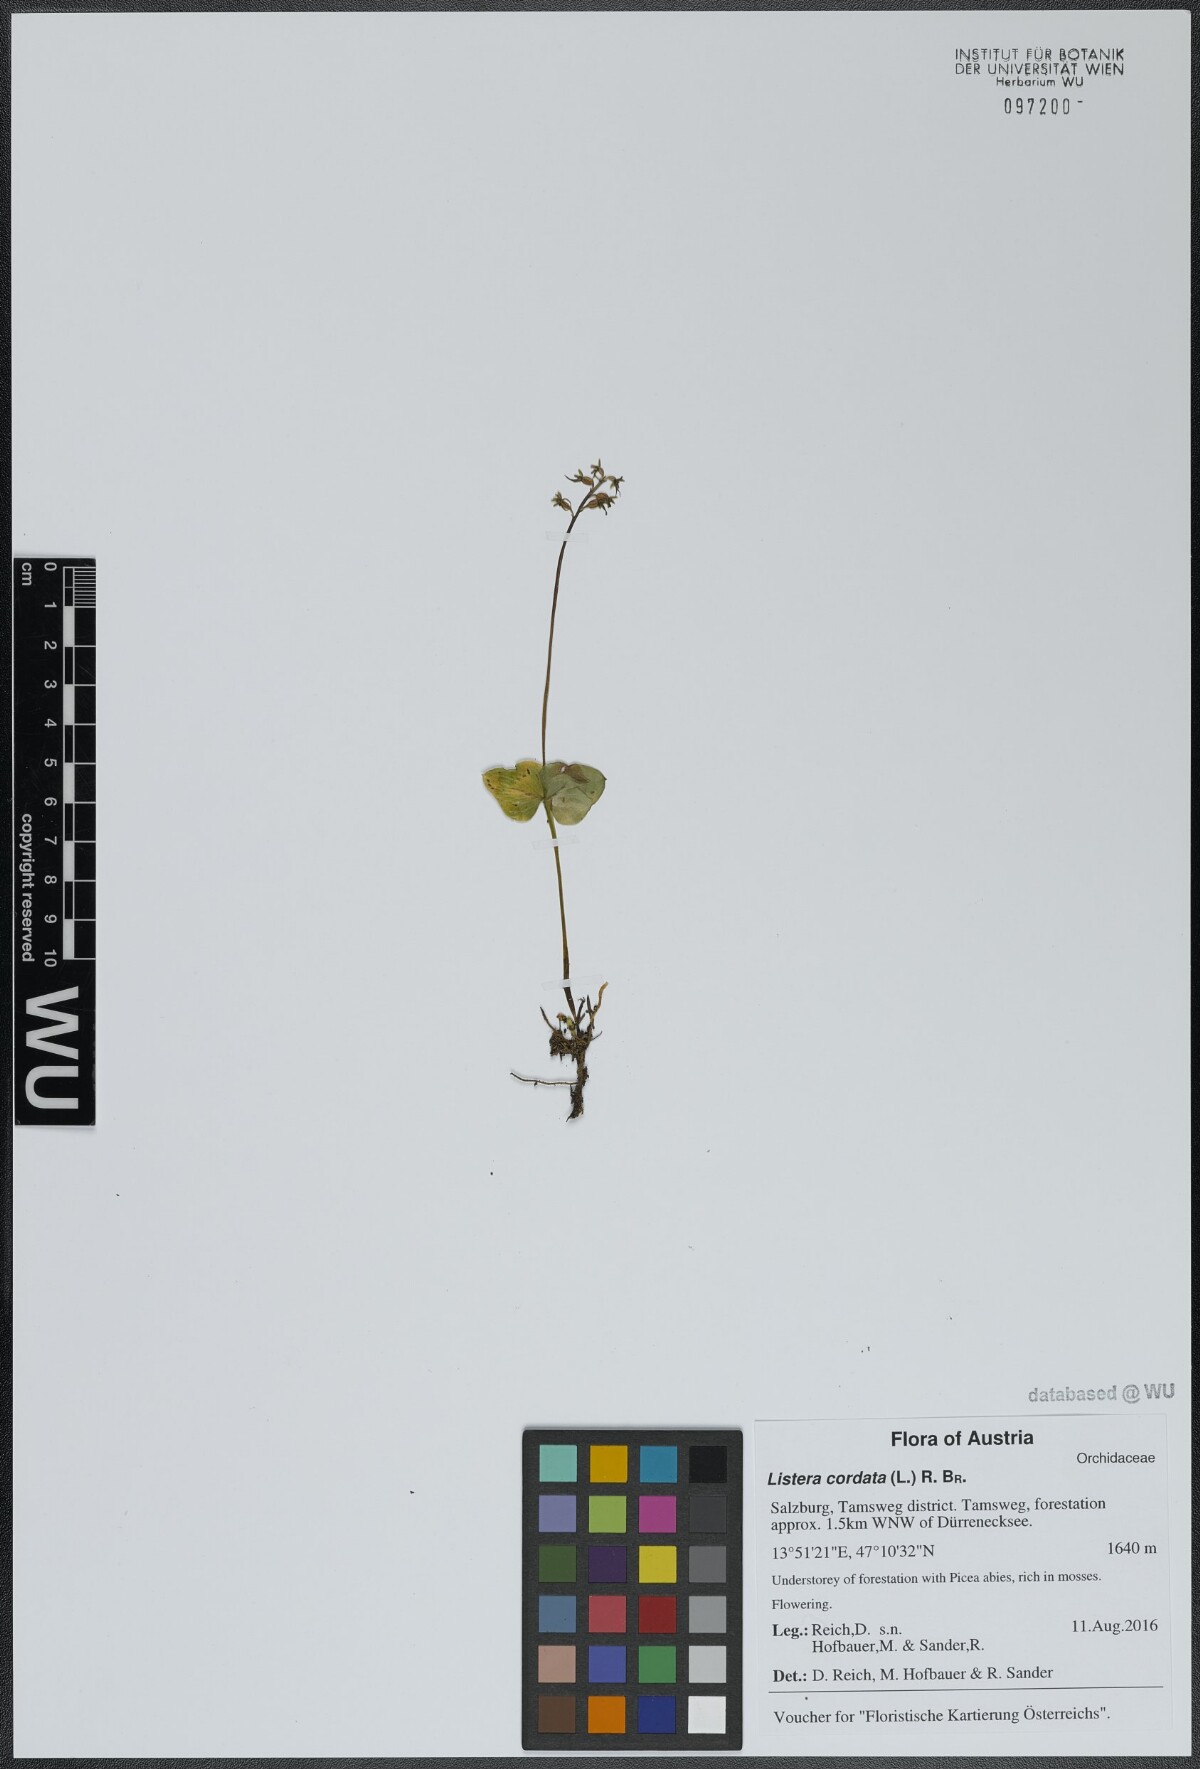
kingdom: Plantae
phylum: Tracheophyta
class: Liliopsida
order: Asparagales
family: Orchidaceae
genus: Neottia
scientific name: Neottia cordata
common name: Lesser twayblade
